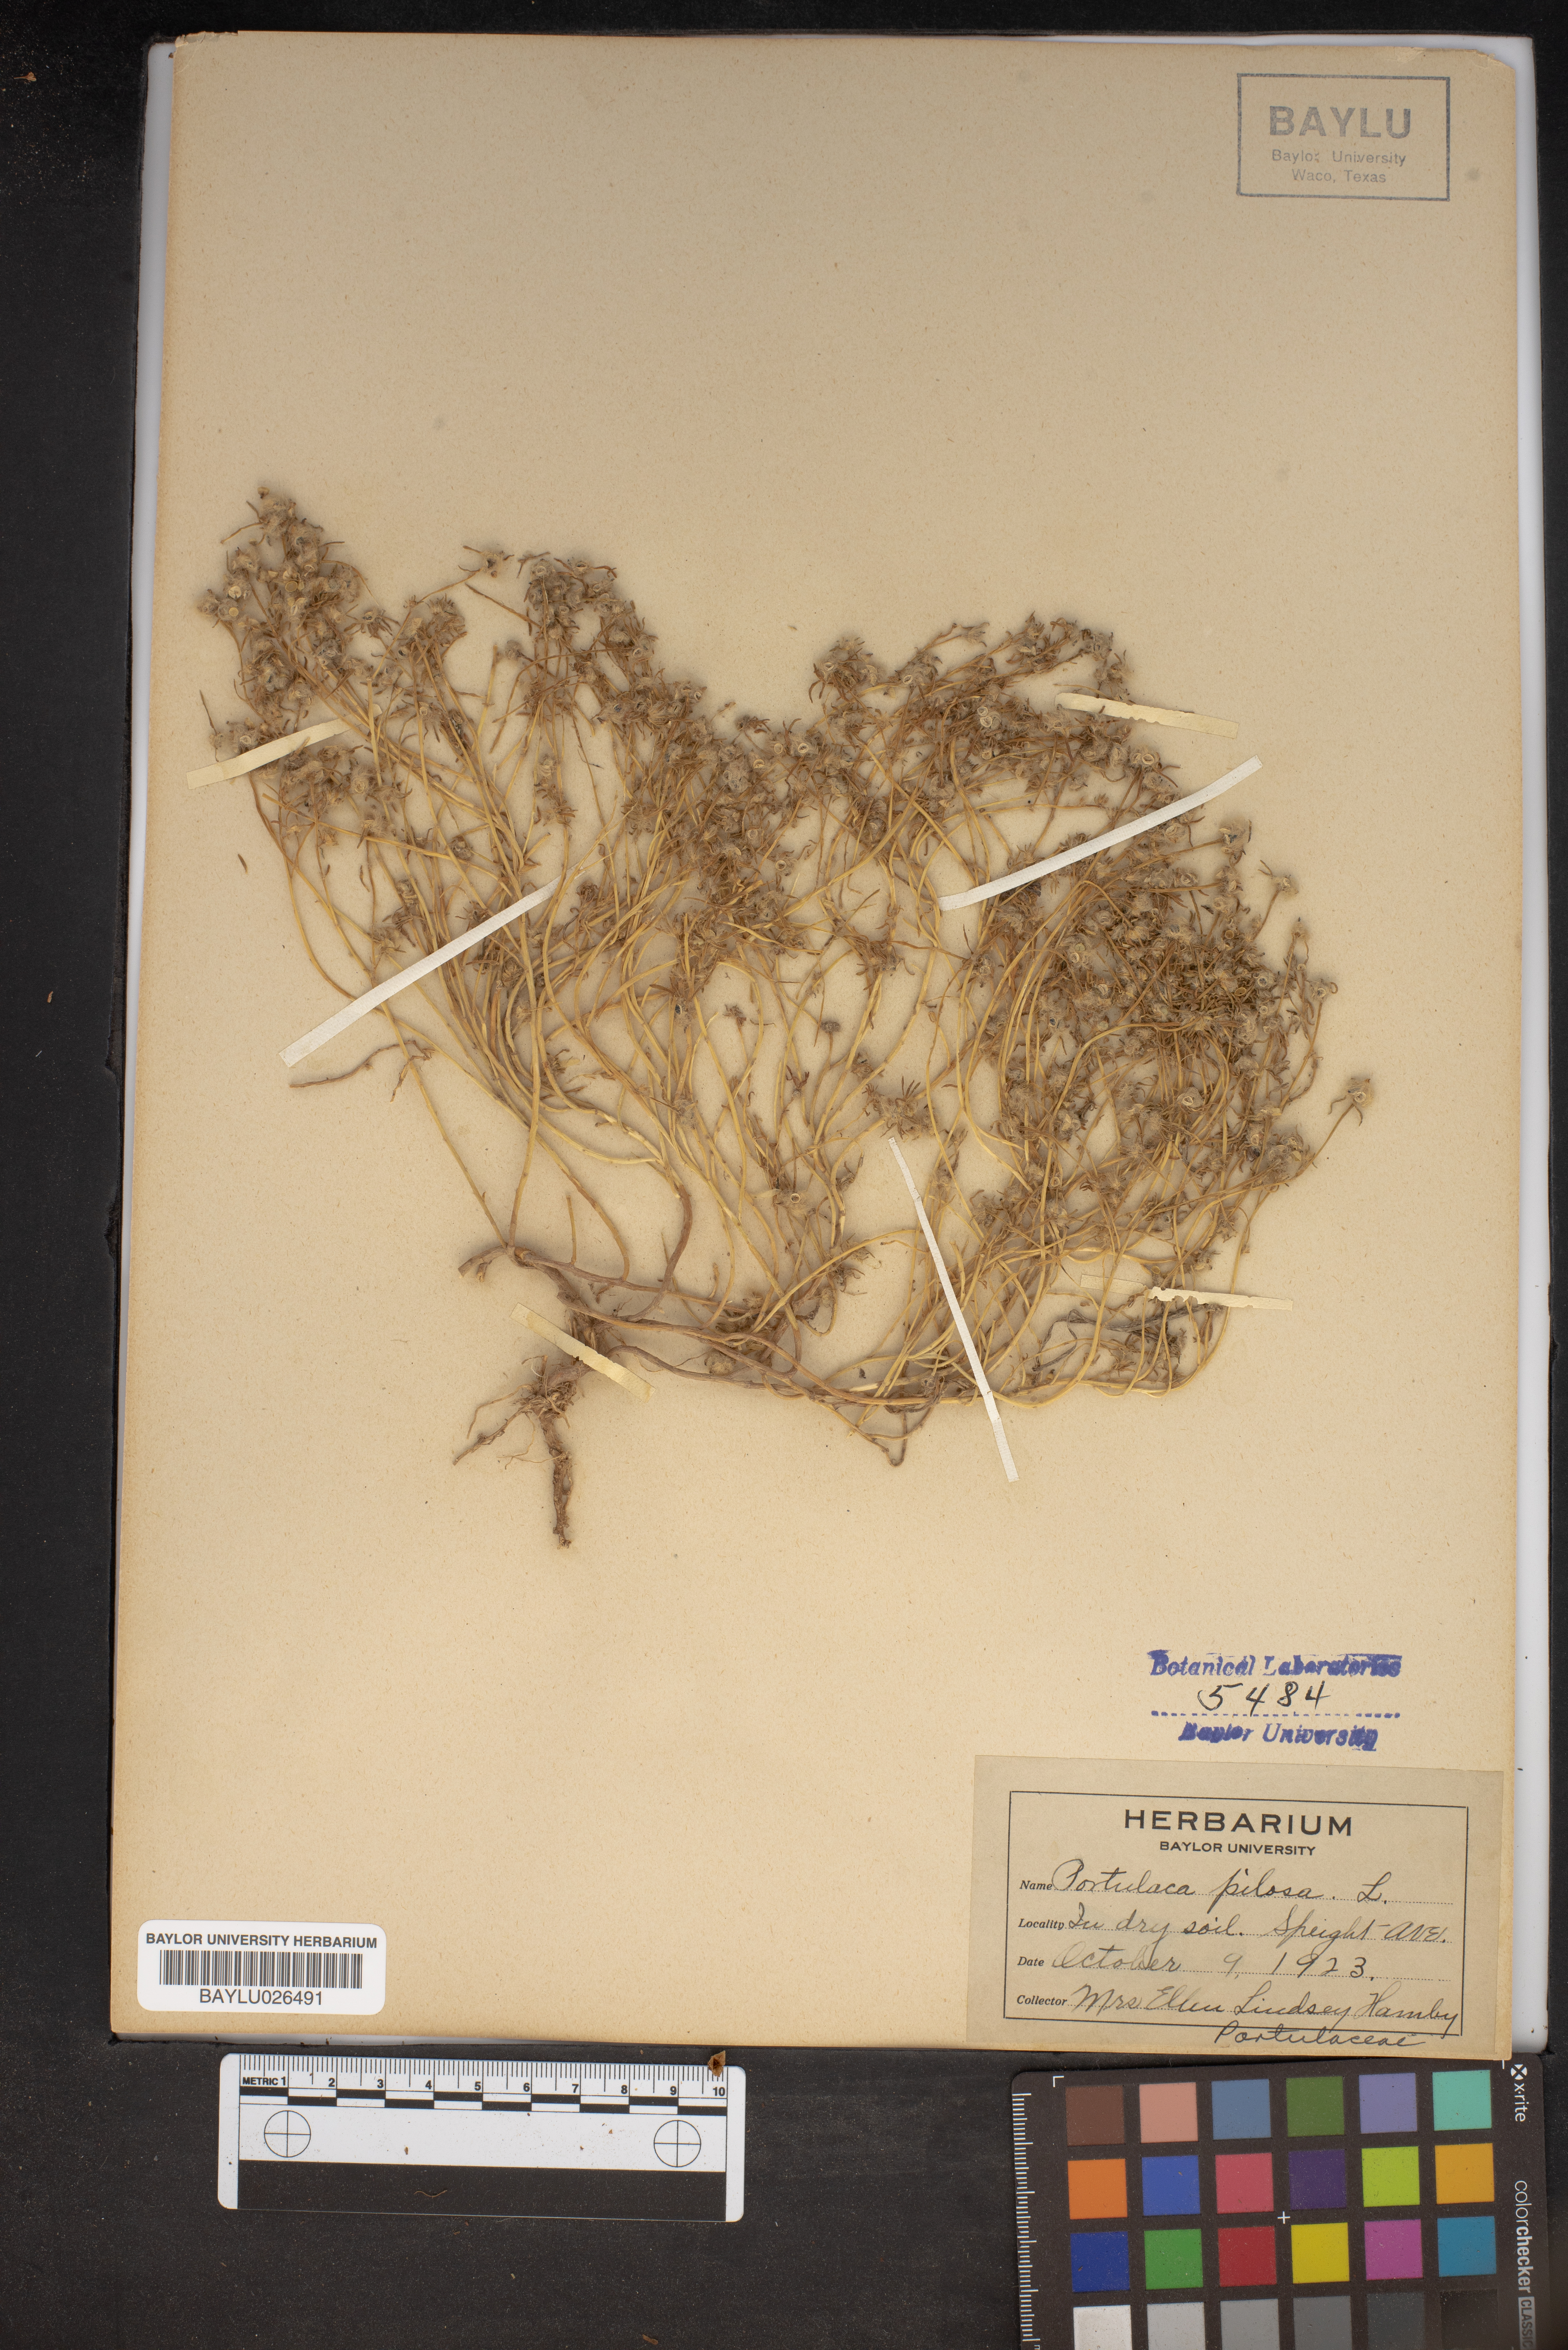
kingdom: Plantae
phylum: Tracheophyta
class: Magnoliopsida
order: Caryophyllales
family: Portulacaceae
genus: Portulaca
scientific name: Portulaca pilosa
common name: Kiss me quick
